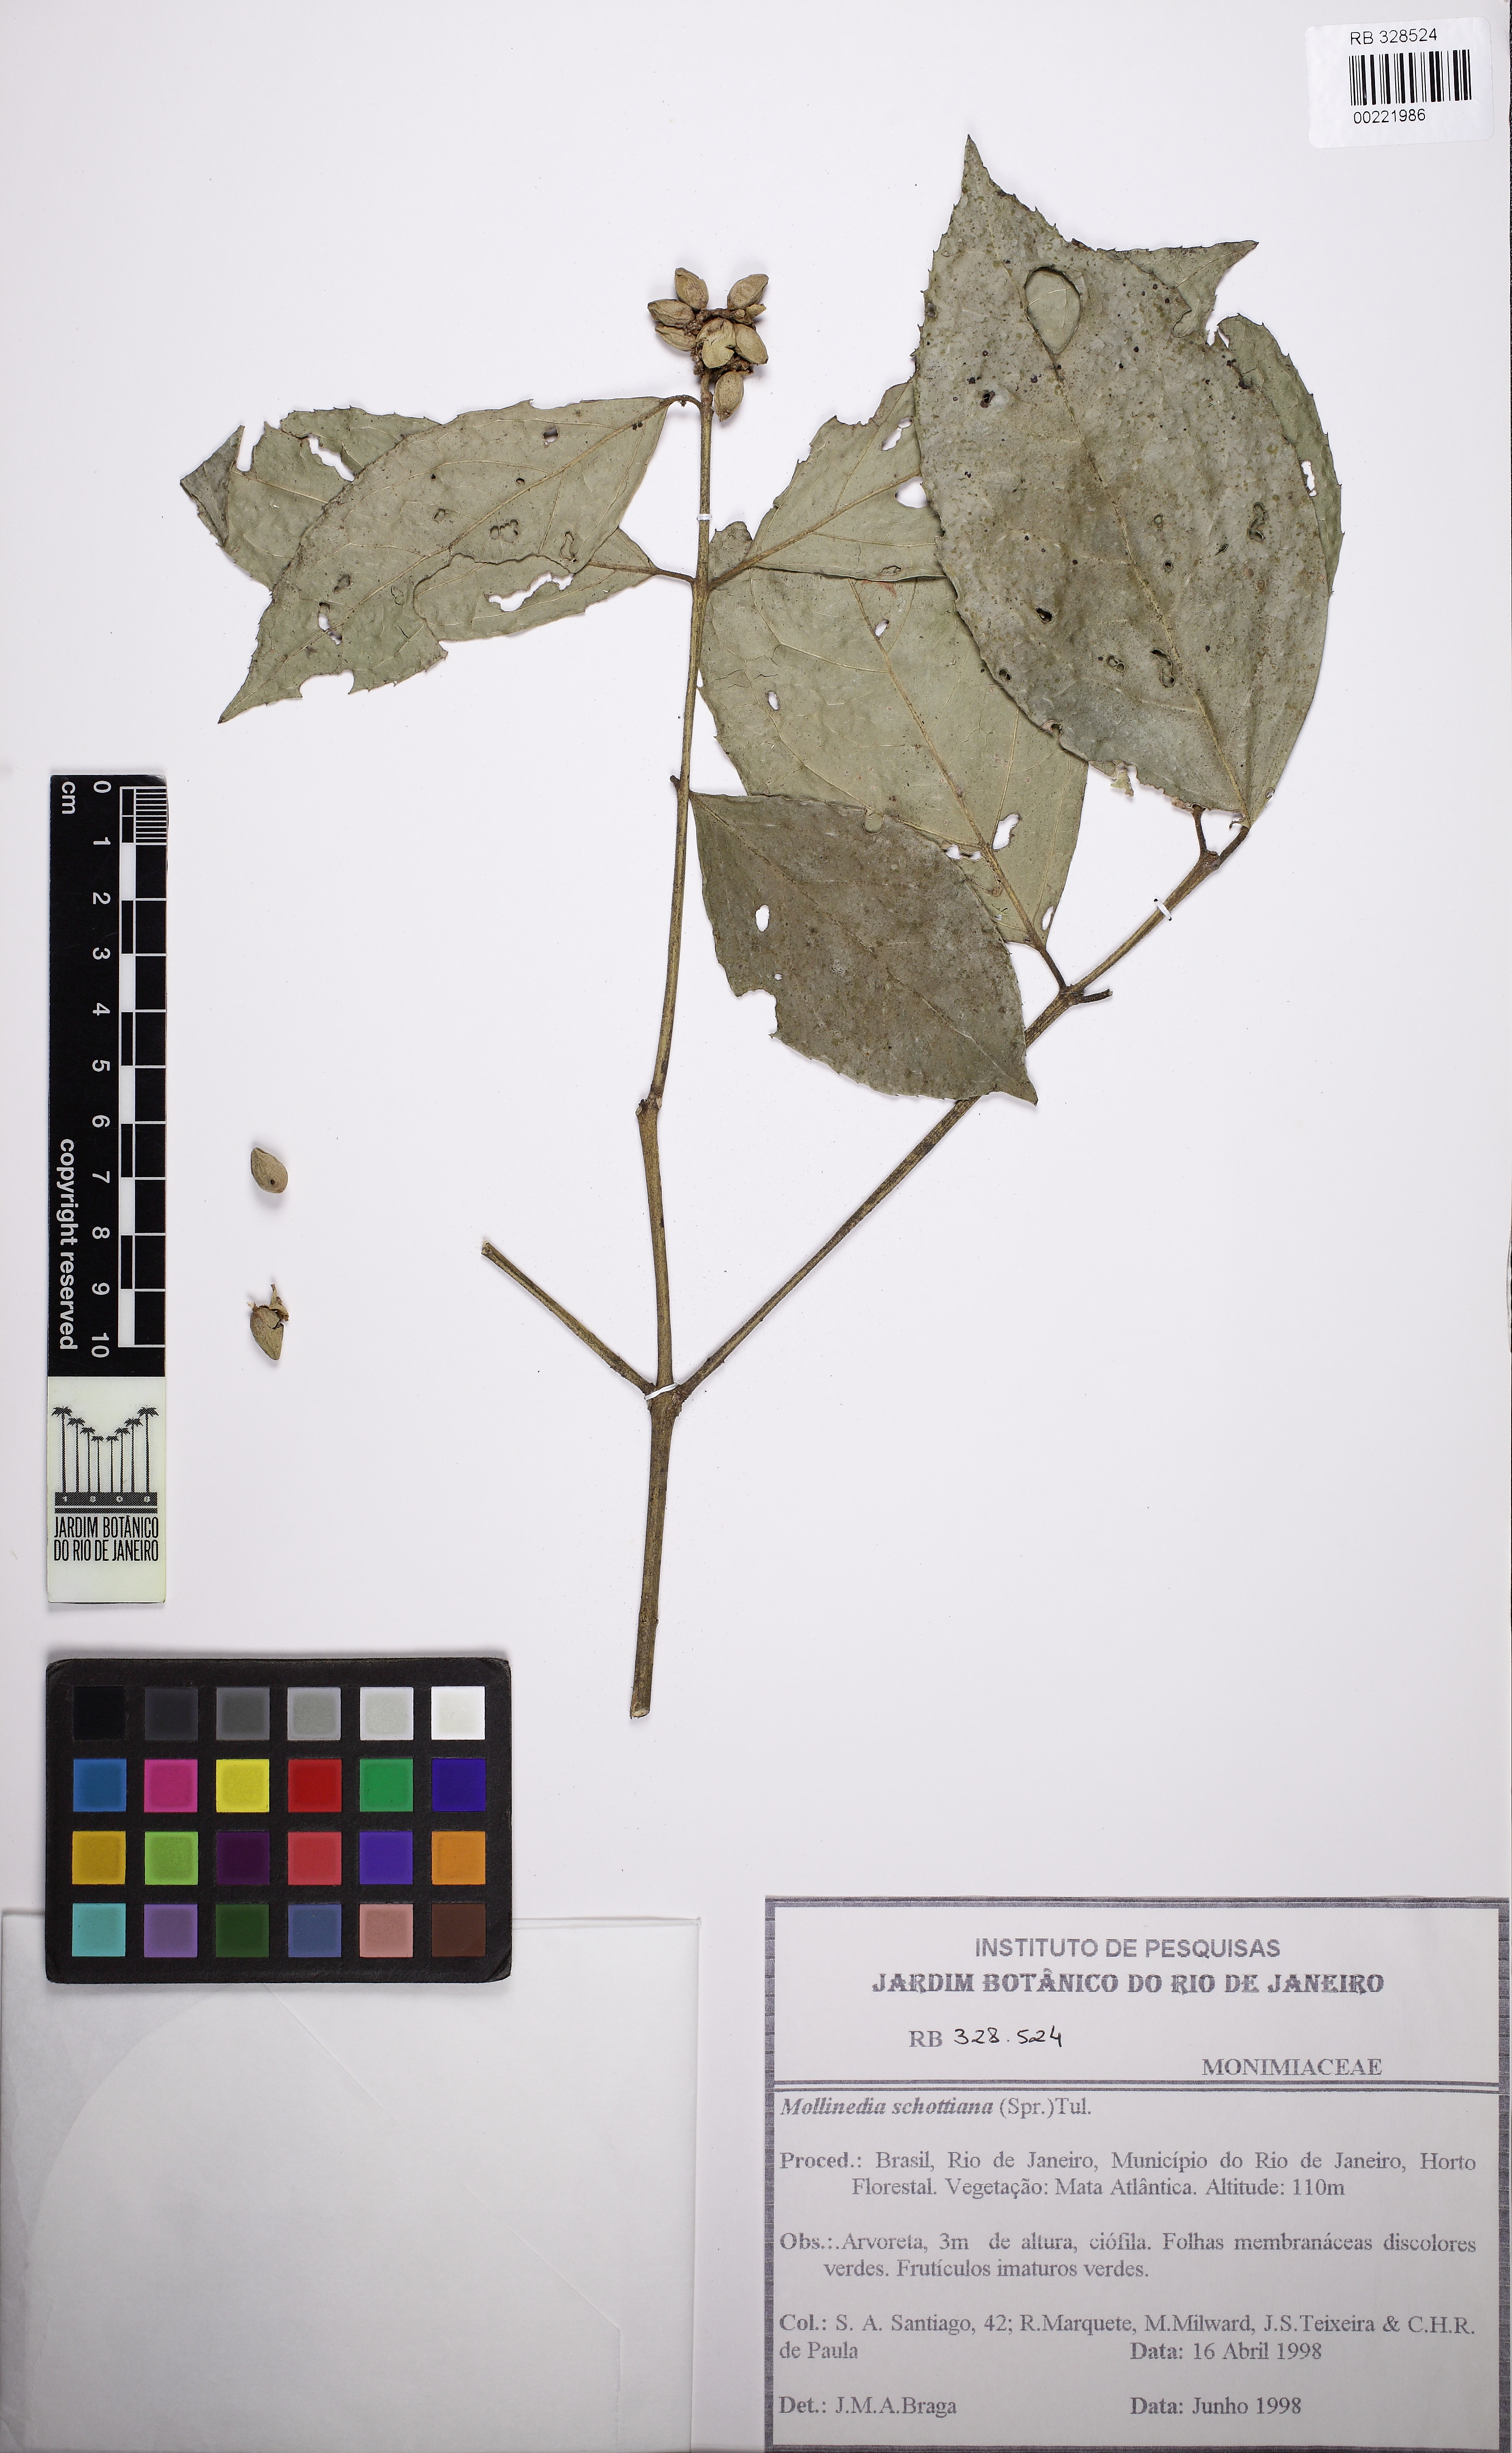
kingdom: Plantae
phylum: Tracheophyta
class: Magnoliopsida
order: Laurales
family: Monimiaceae
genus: Mollinedia
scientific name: Mollinedia umbellata
